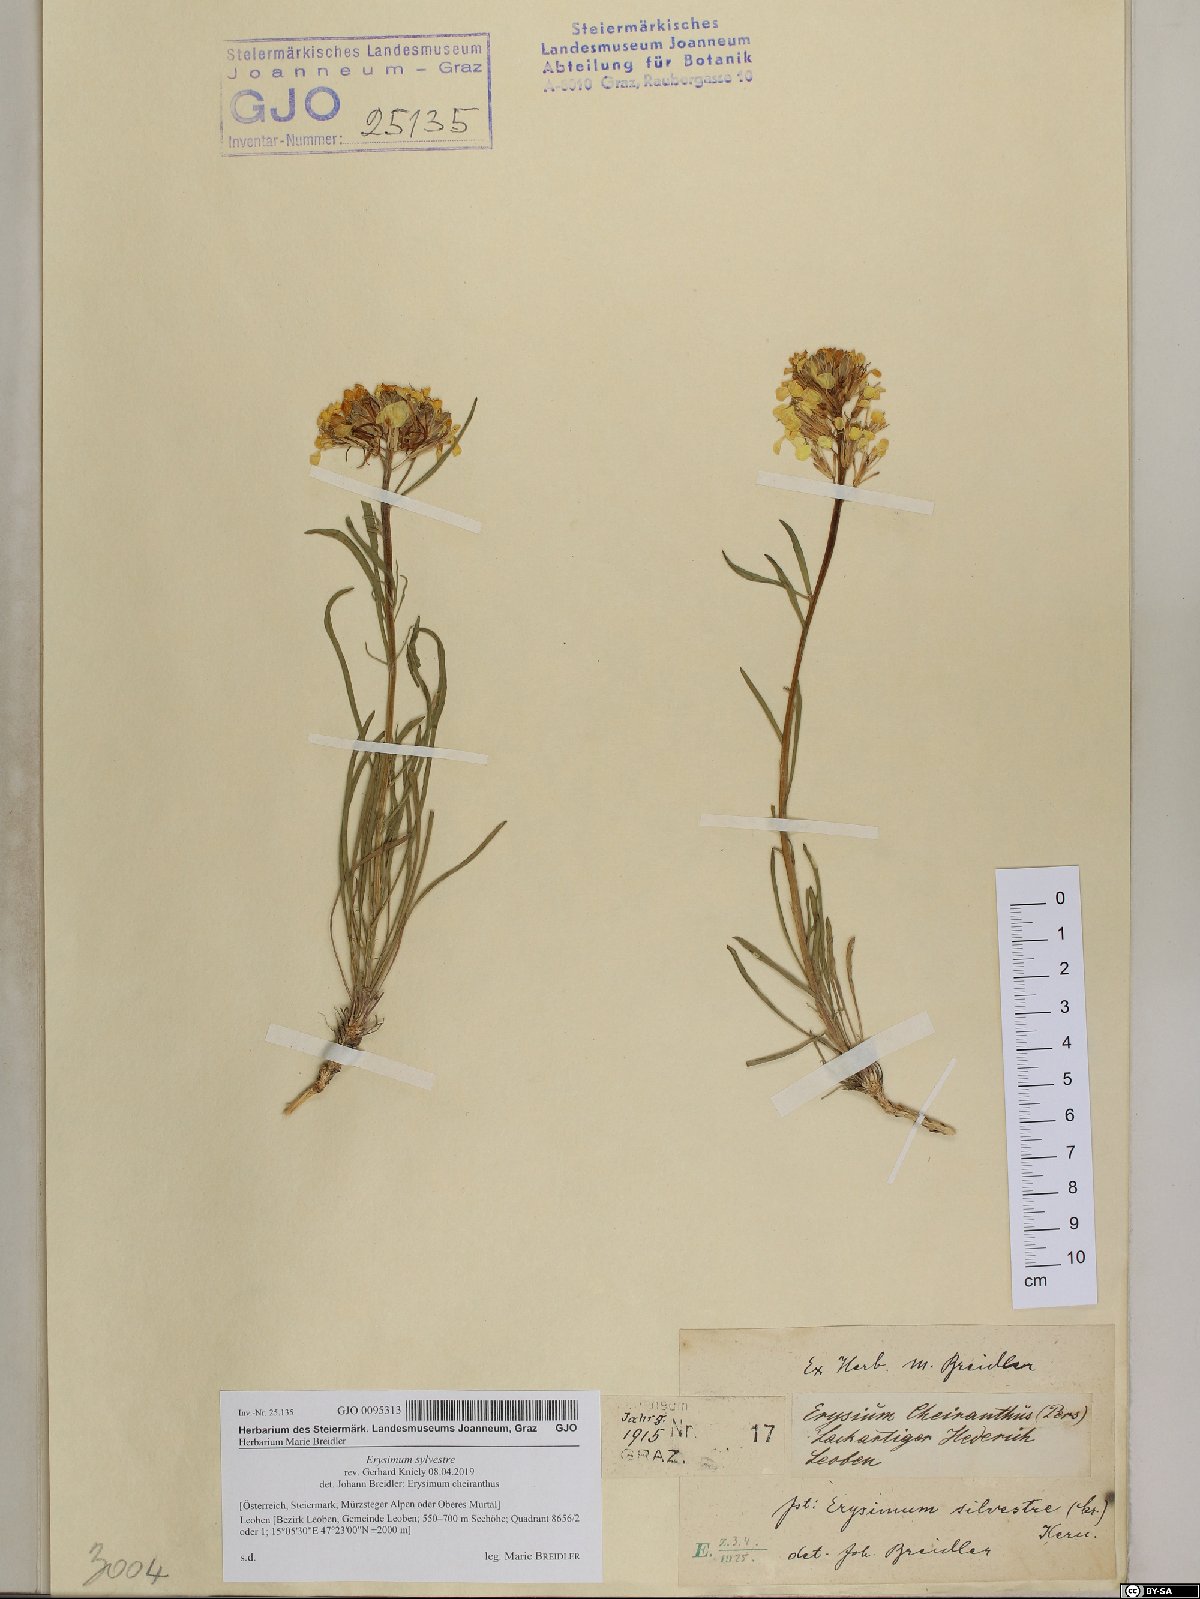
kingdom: Plantae
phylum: Tracheophyta
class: Magnoliopsida
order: Brassicales
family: Brassicaceae
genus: Erysimum
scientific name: Erysimum sylvestre
